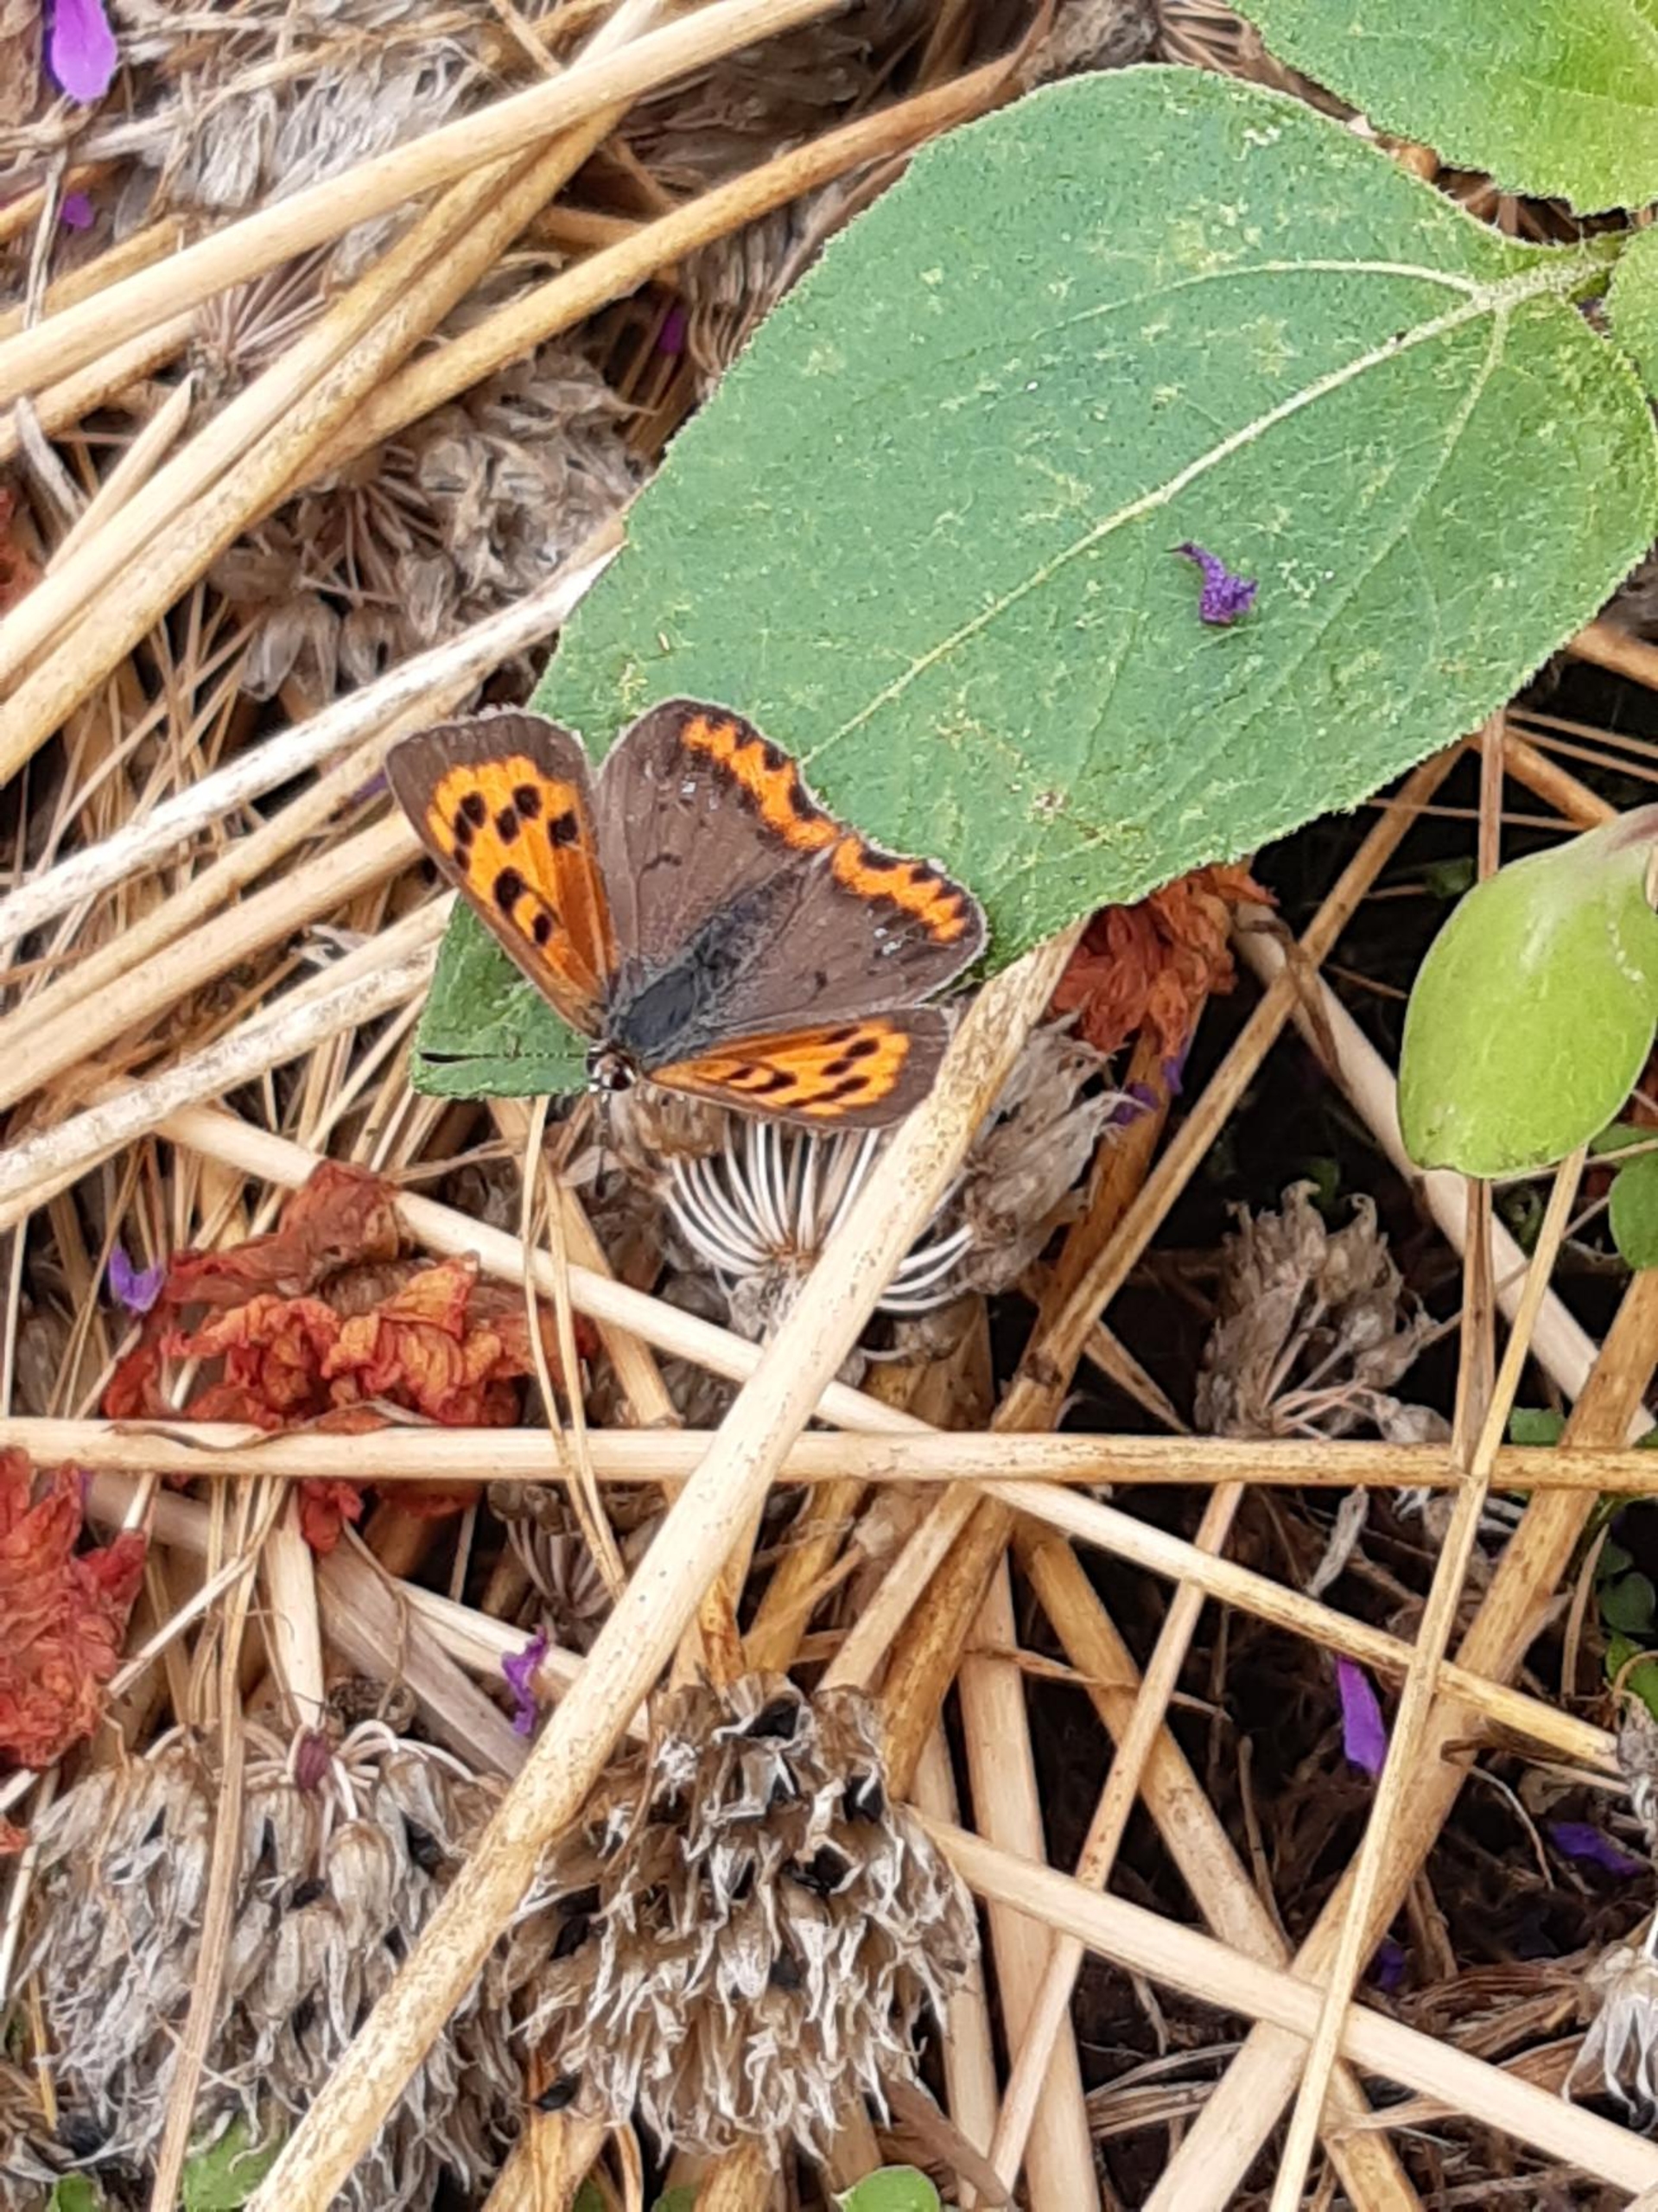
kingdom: Animalia
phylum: Arthropoda
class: Insecta
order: Lepidoptera
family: Lycaenidae
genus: Lycaena
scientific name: Lycaena phlaeas
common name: Lille ildfugl
